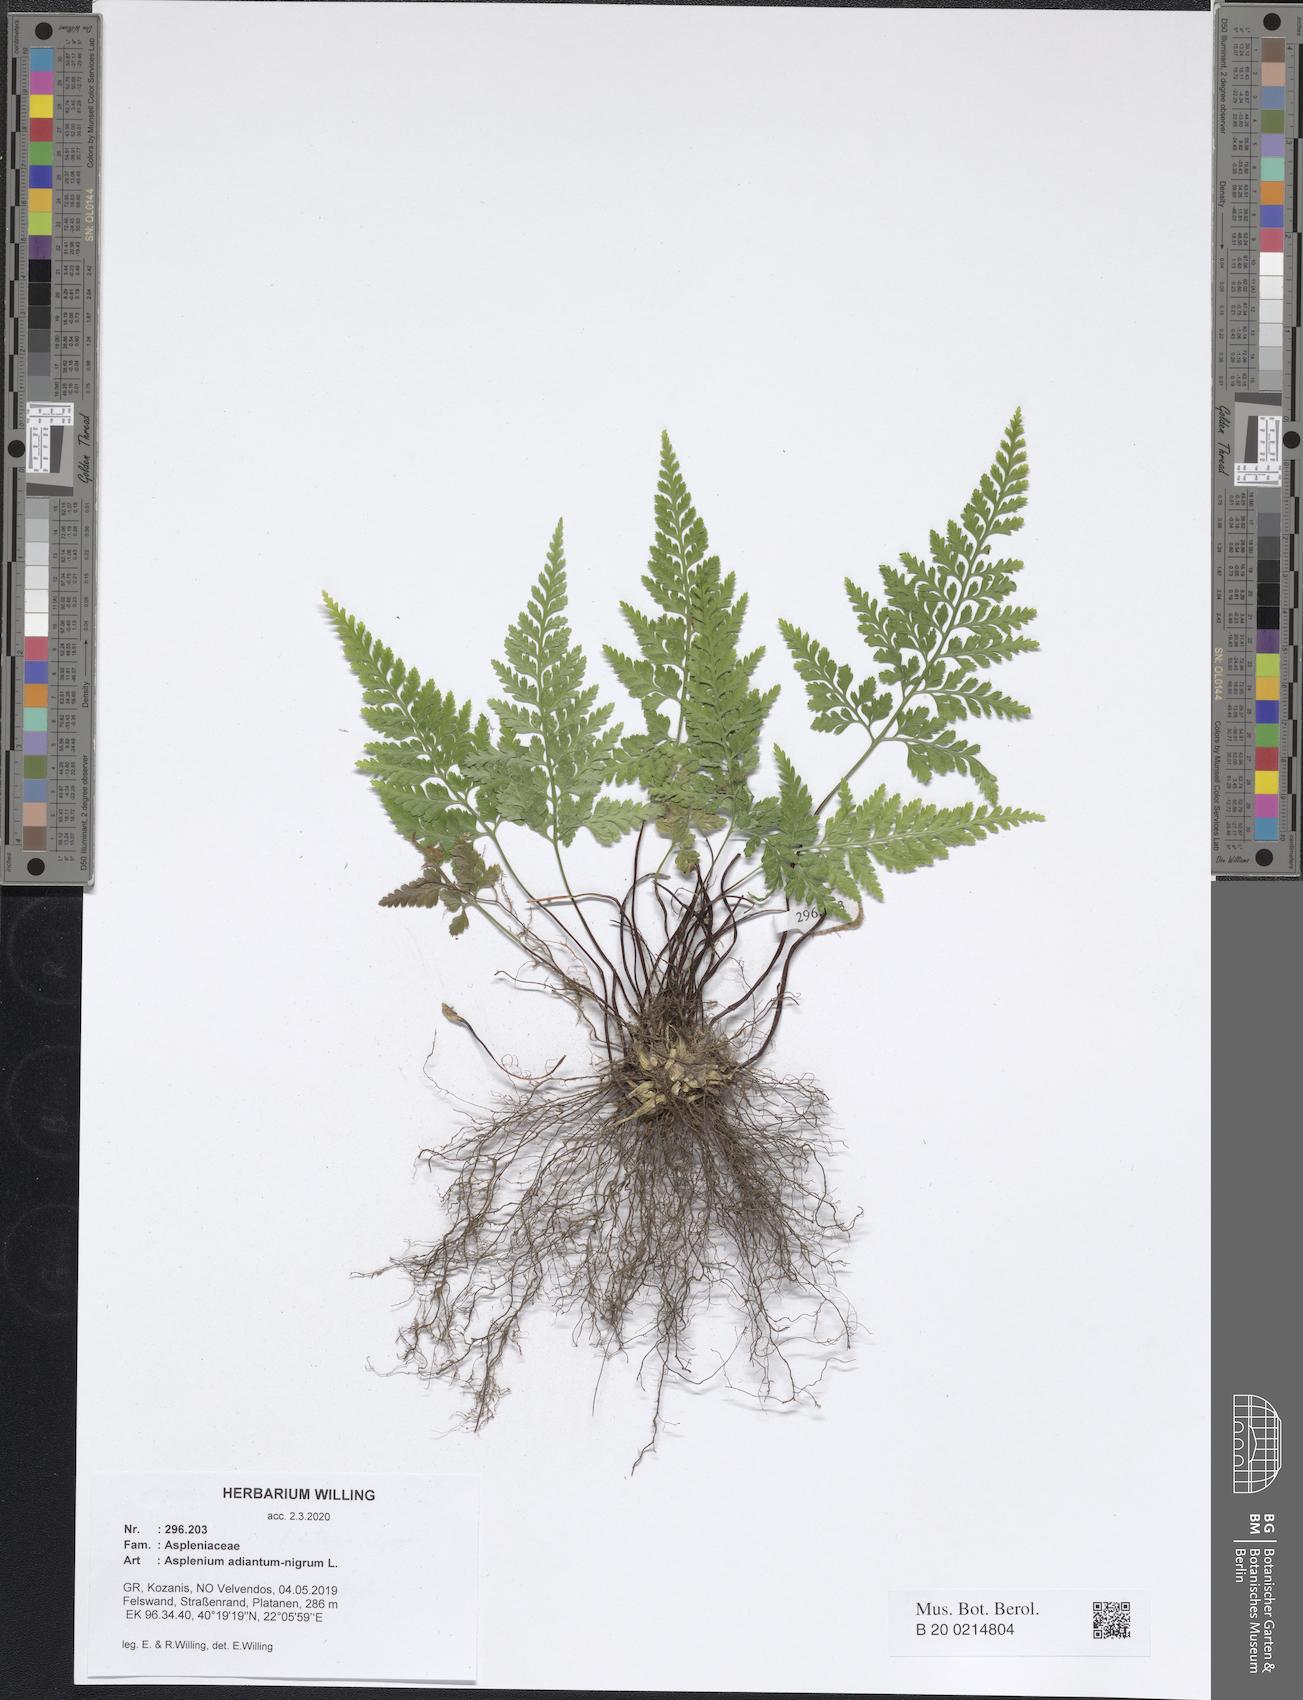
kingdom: Plantae
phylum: Tracheophyta
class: Polypodiopsida
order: Polypodiales
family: Aspleniaceae
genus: Asplenium
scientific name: Asplenium adiantum-nigrum
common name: Black spleenwort
